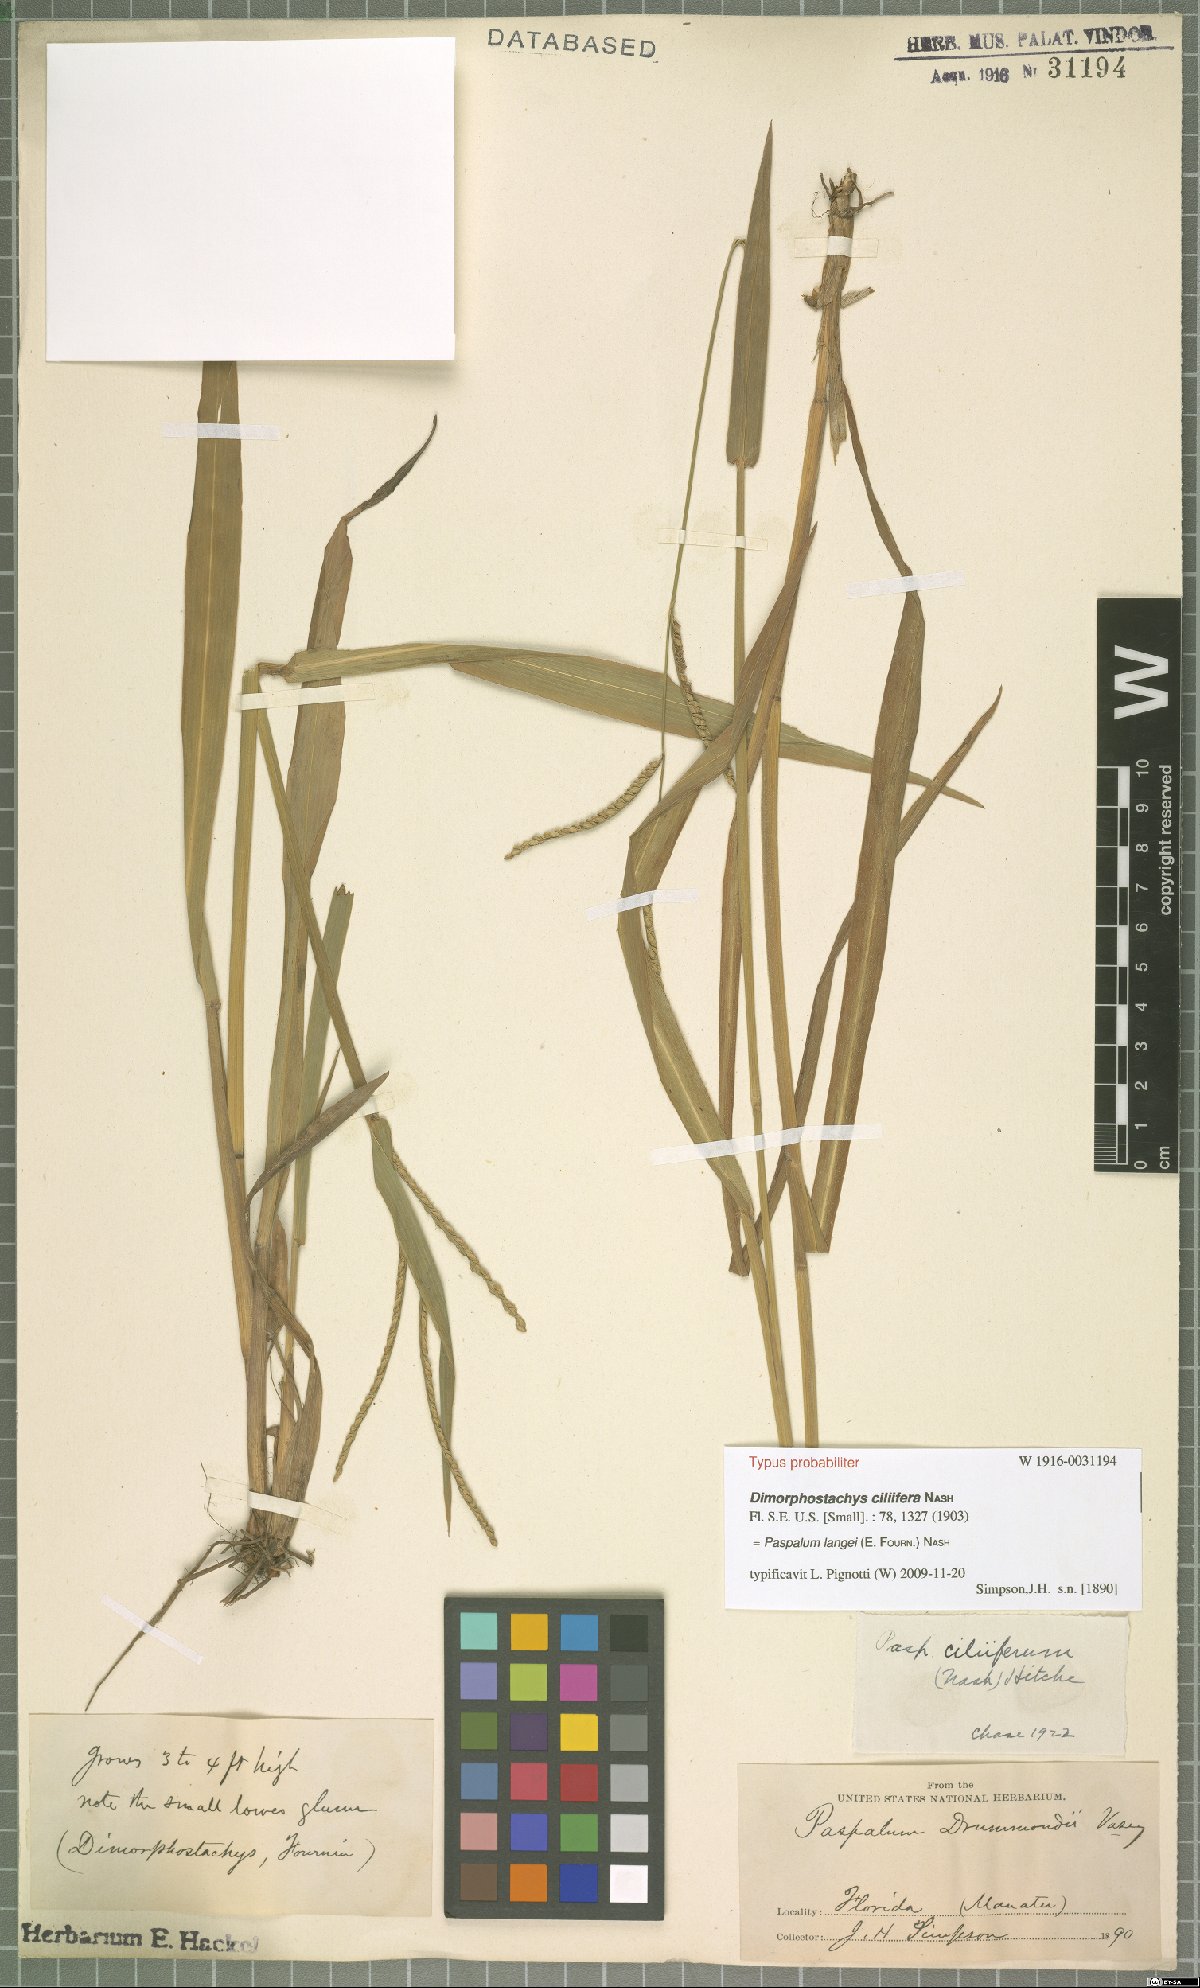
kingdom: Plantae
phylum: Tracheophyta
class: Liliopsida
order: Poales
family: Poaceae
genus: Paspalum
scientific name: Paspalum langei
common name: Rusty-seed paspalum
